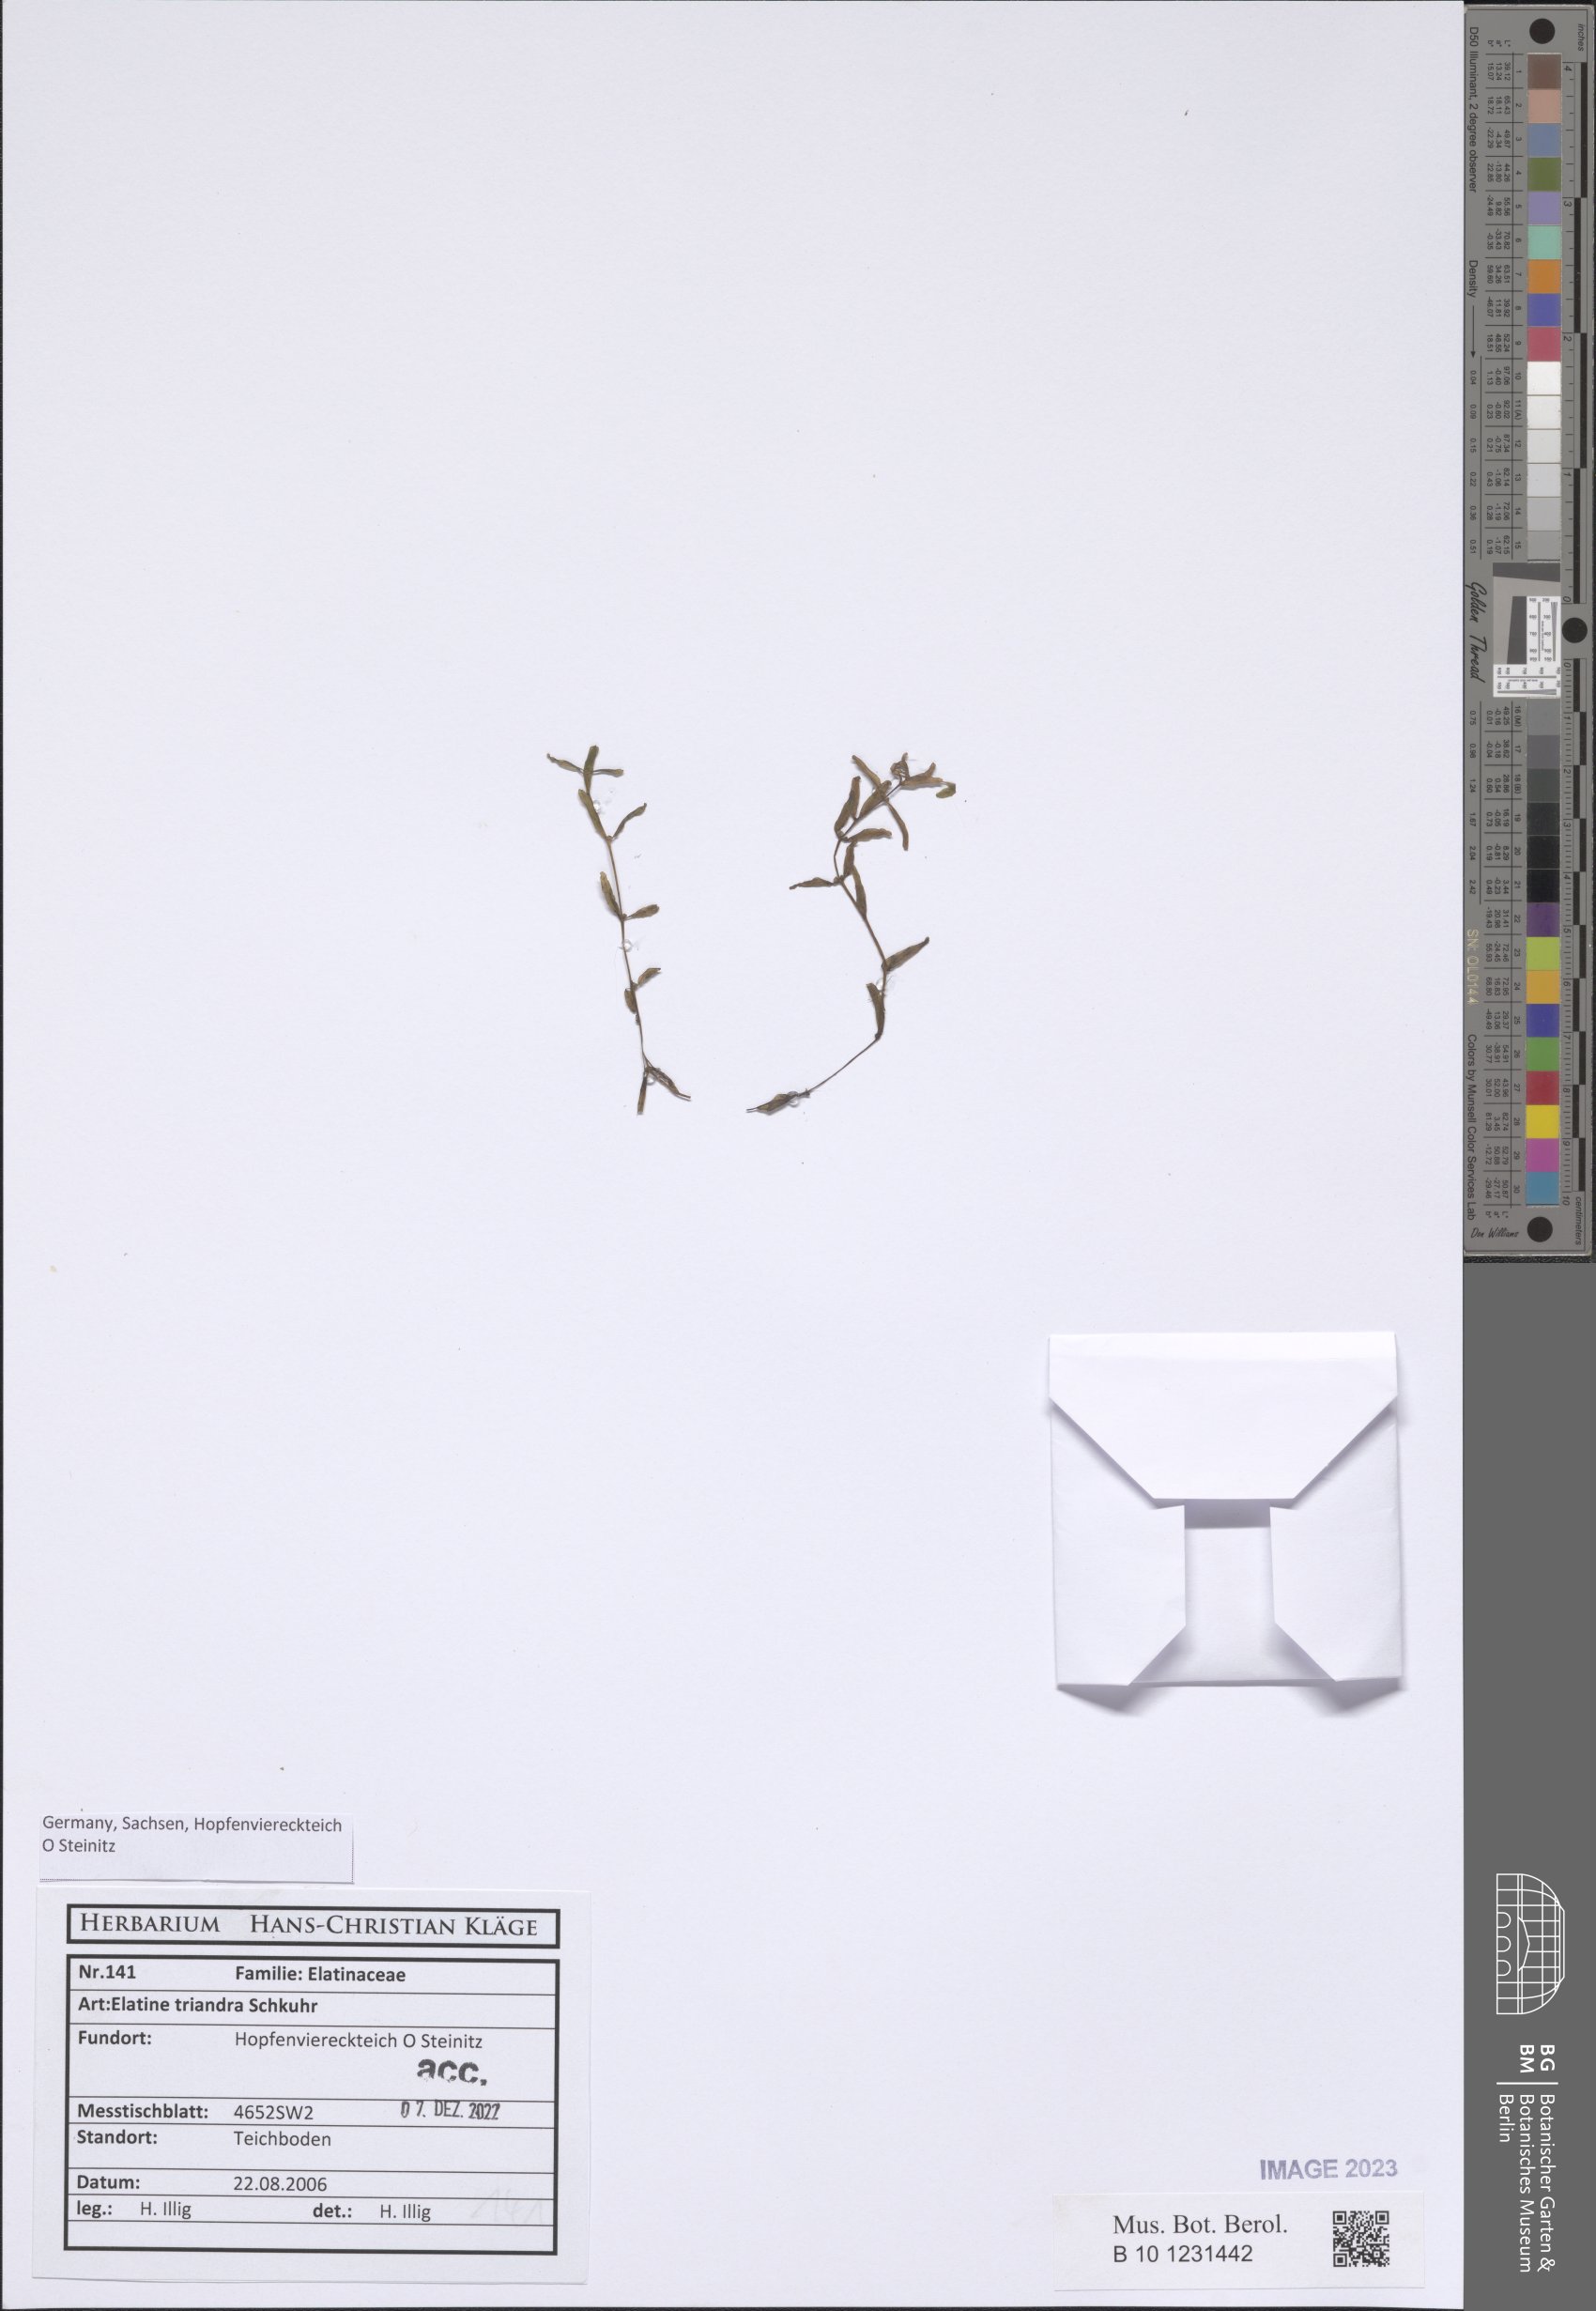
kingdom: Plantae
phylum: Tracheophyta
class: Magnoliopsida
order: Malpighiales
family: Elatinaceae
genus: Elatine
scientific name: Elatine triandra
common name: Three-stamened waterwort
